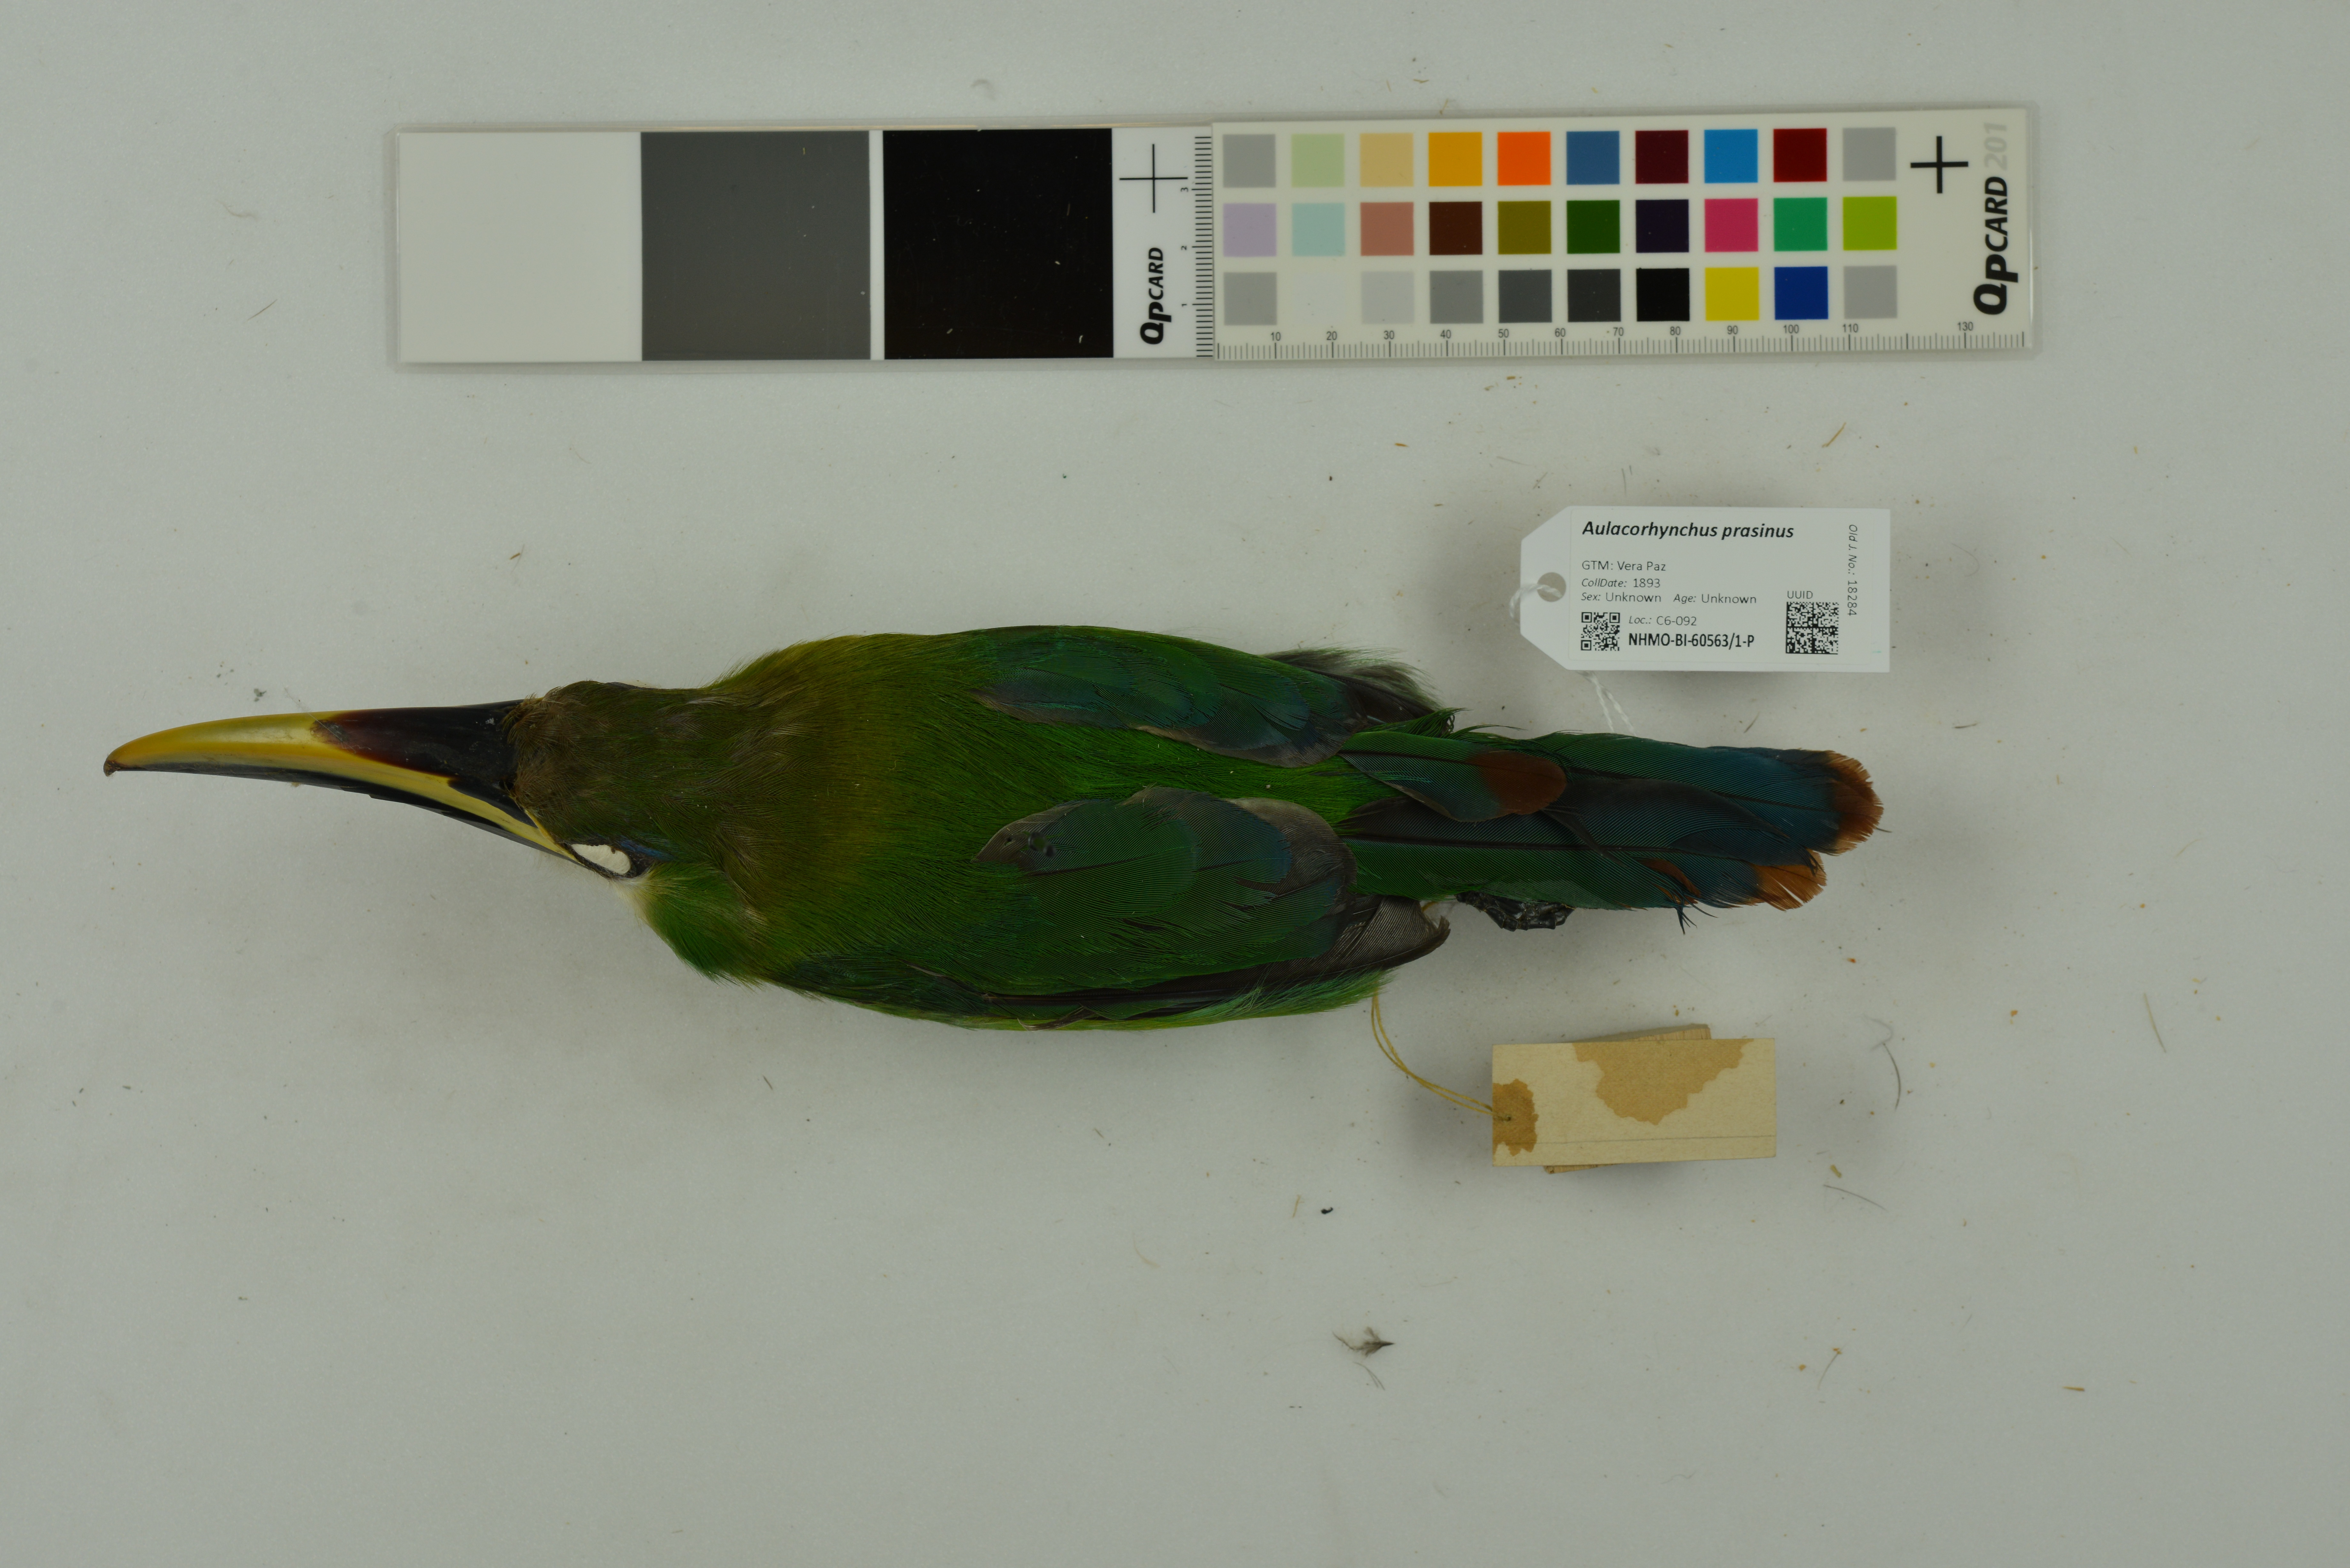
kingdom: Animalia
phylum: Chordata
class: Aves
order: Piciformes
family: Ramphastidae
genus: Aulacorhynchus
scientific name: Aulacorhynchus prasinus
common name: Emerald toucanet
